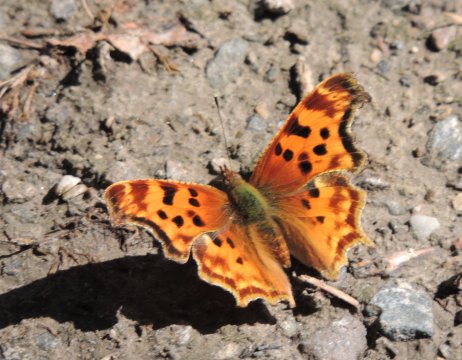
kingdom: Animalia
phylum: Arthropoda
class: Insecta
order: Lepidoptera
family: Nymphalidae
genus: Polygonia
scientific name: Polygonia satyrus
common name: Satyr Comma
